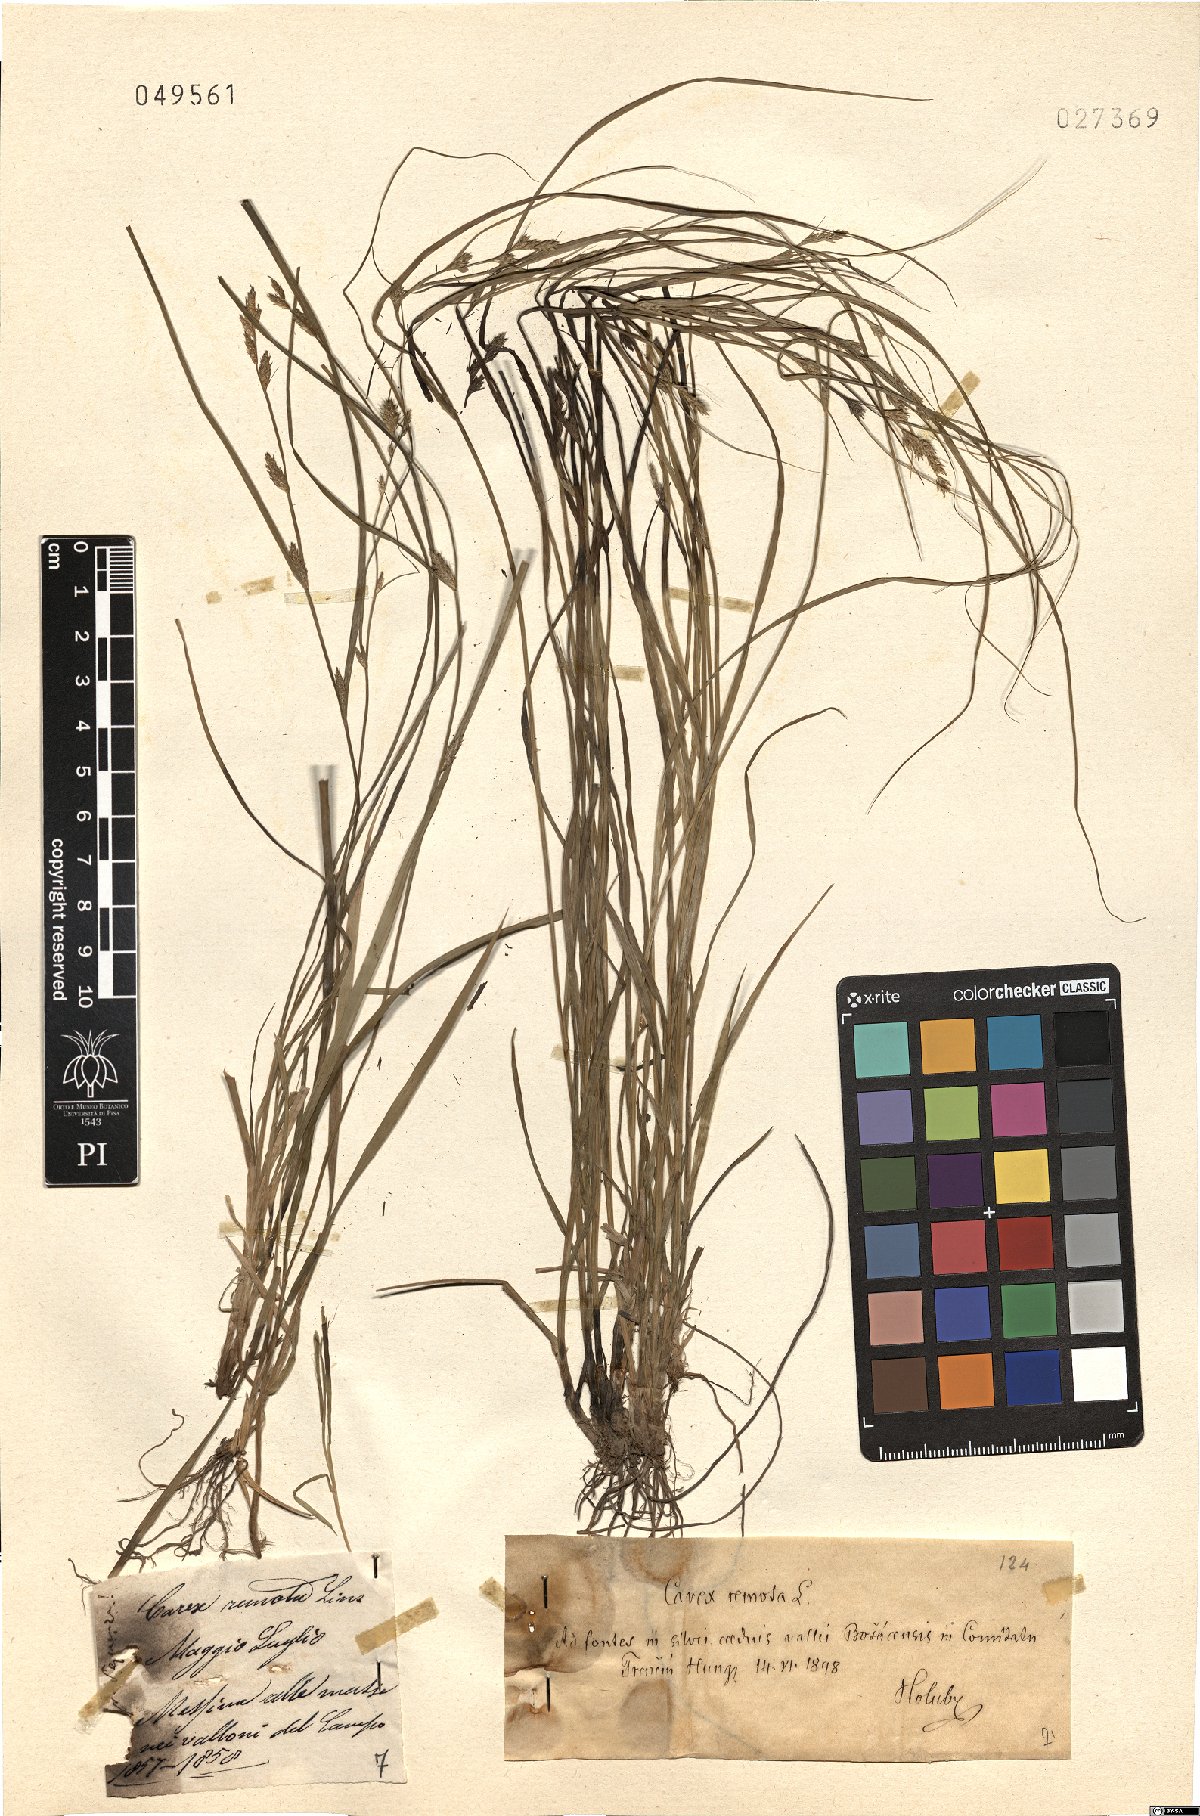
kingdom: Plantae
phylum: Tracheophyta
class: Liliopsida
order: Poales
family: Cyperaceae
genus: Carex
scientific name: Carex remota
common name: Remote sedge
